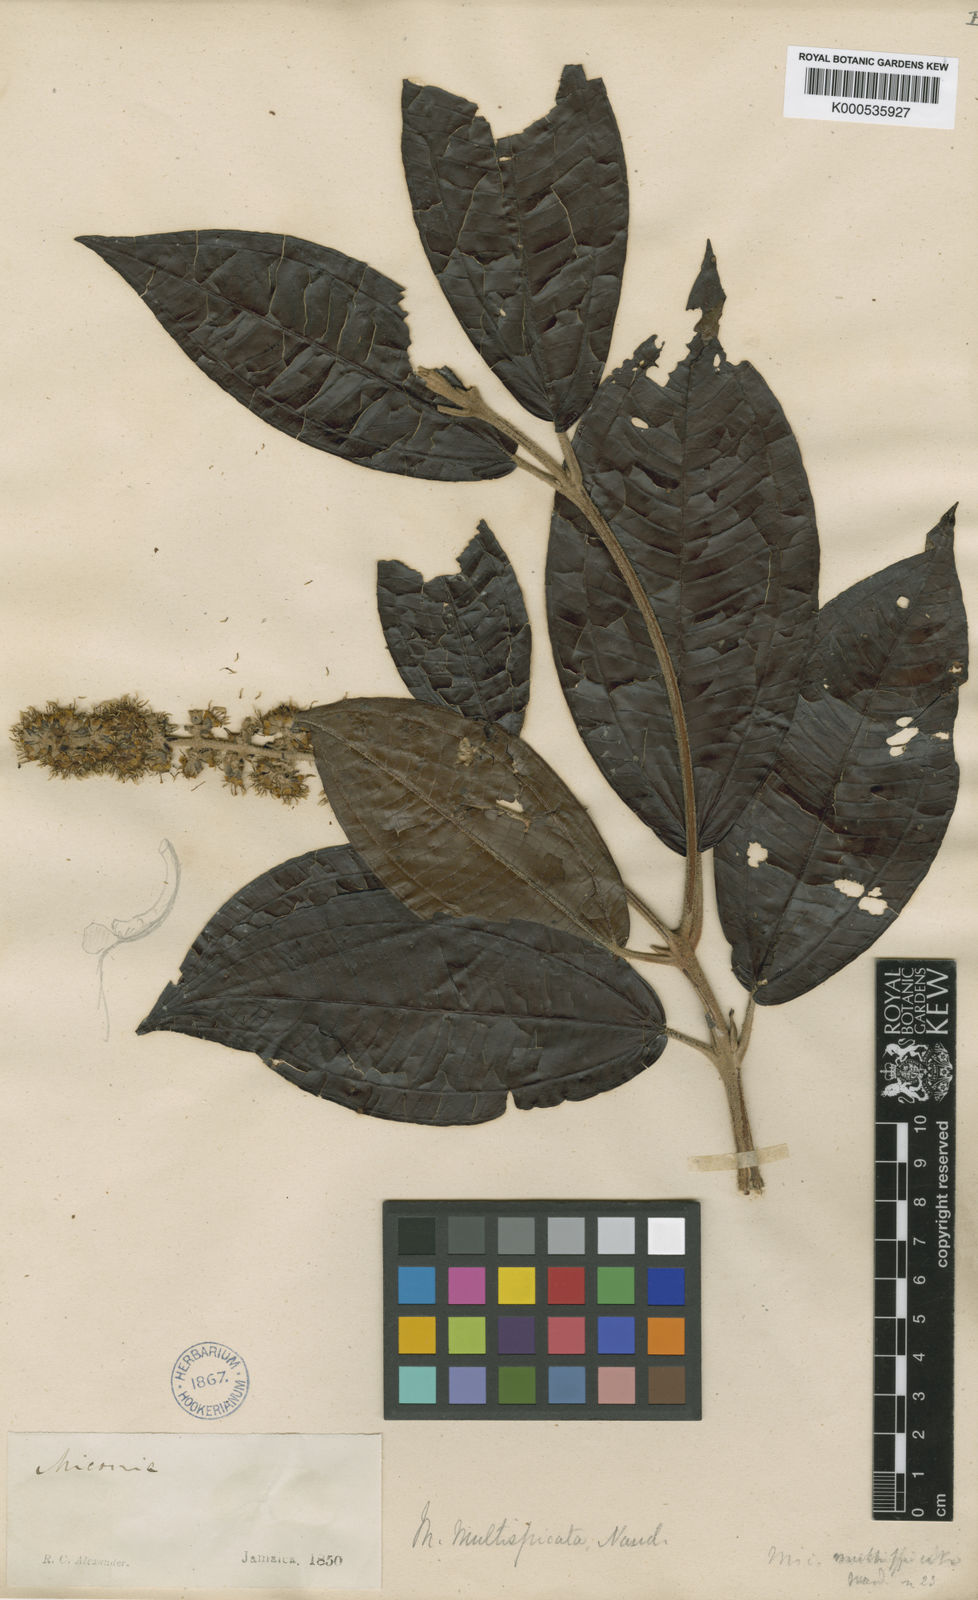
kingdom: Plantae
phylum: Tracheophyta
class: Magnoliopsida
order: Myrtales
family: Melastomataceae
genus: Miconia
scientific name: Miconia multispicata
